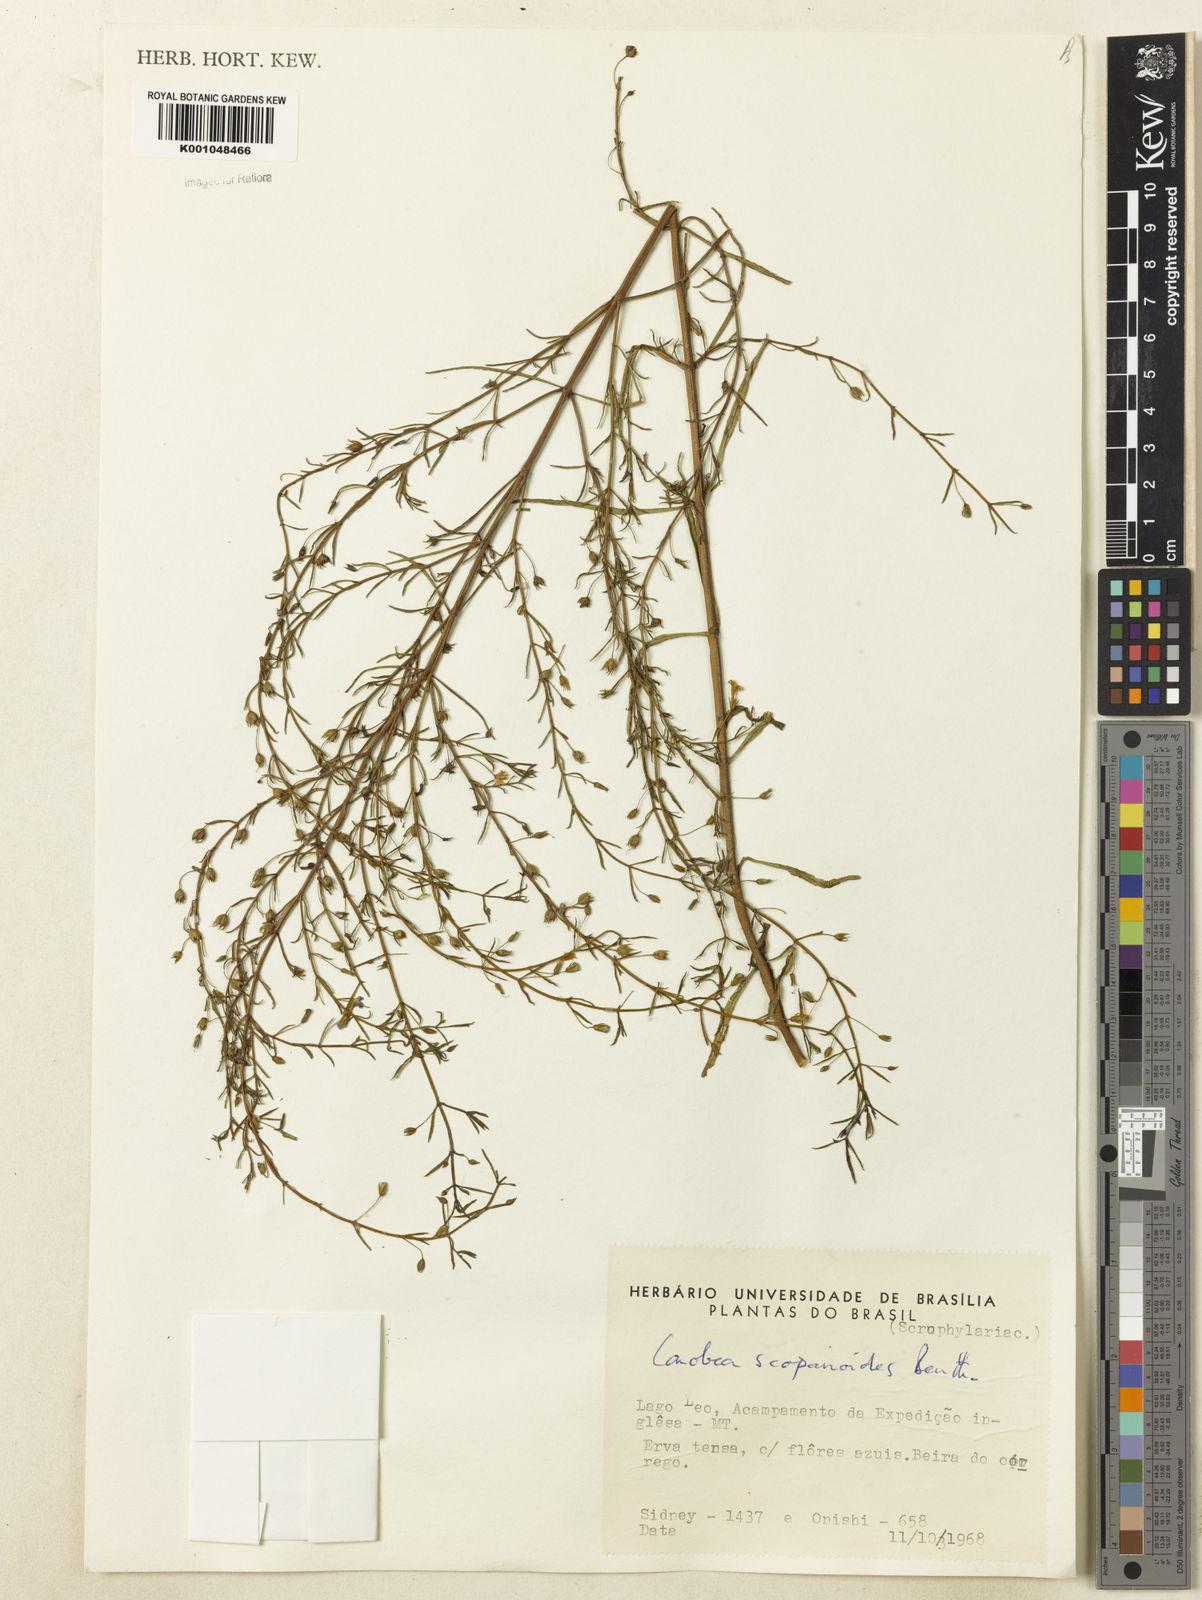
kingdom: Plantae
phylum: Tracheophyta
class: Magnoliopsida
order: Lamiales
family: Plantaginaceae
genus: Conobea
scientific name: Conobea scoparioides
